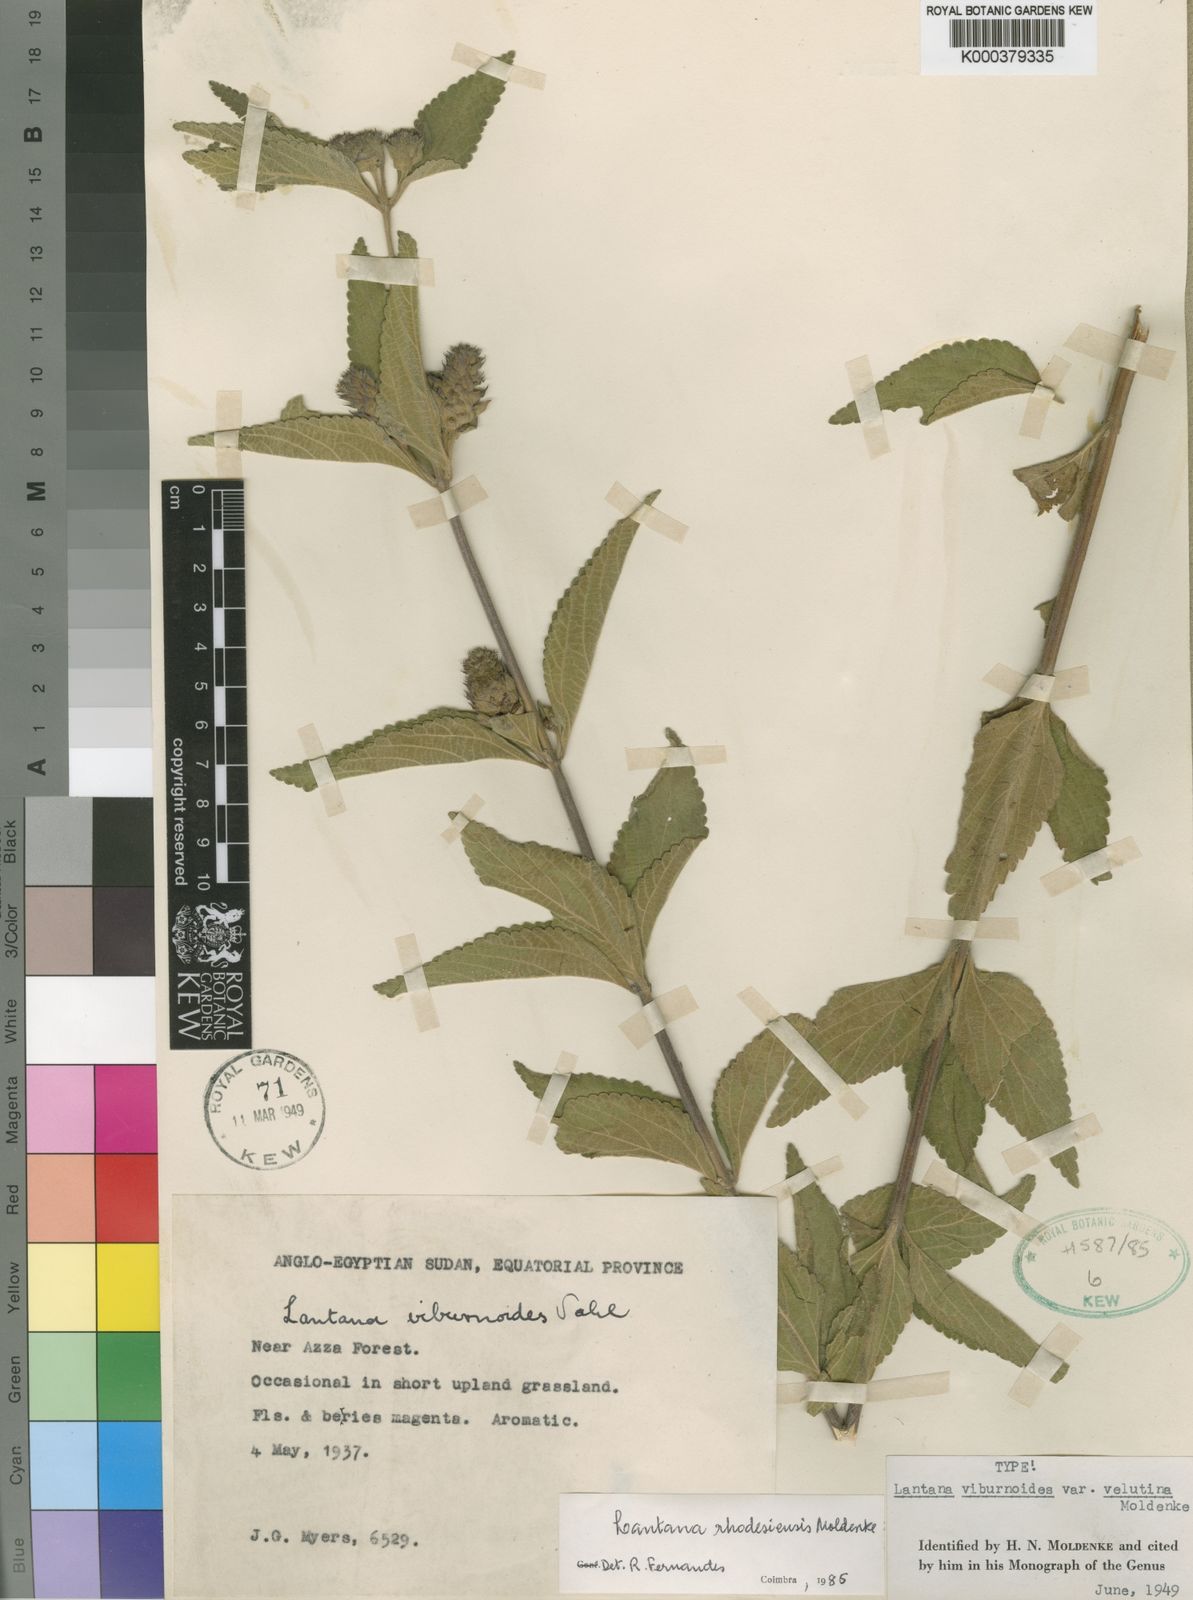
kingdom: Plantae
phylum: Tracheophyta
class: Magnoliopsida
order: Lamiales
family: Verbenaceae
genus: Lantana
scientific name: Lantana ukambensis
